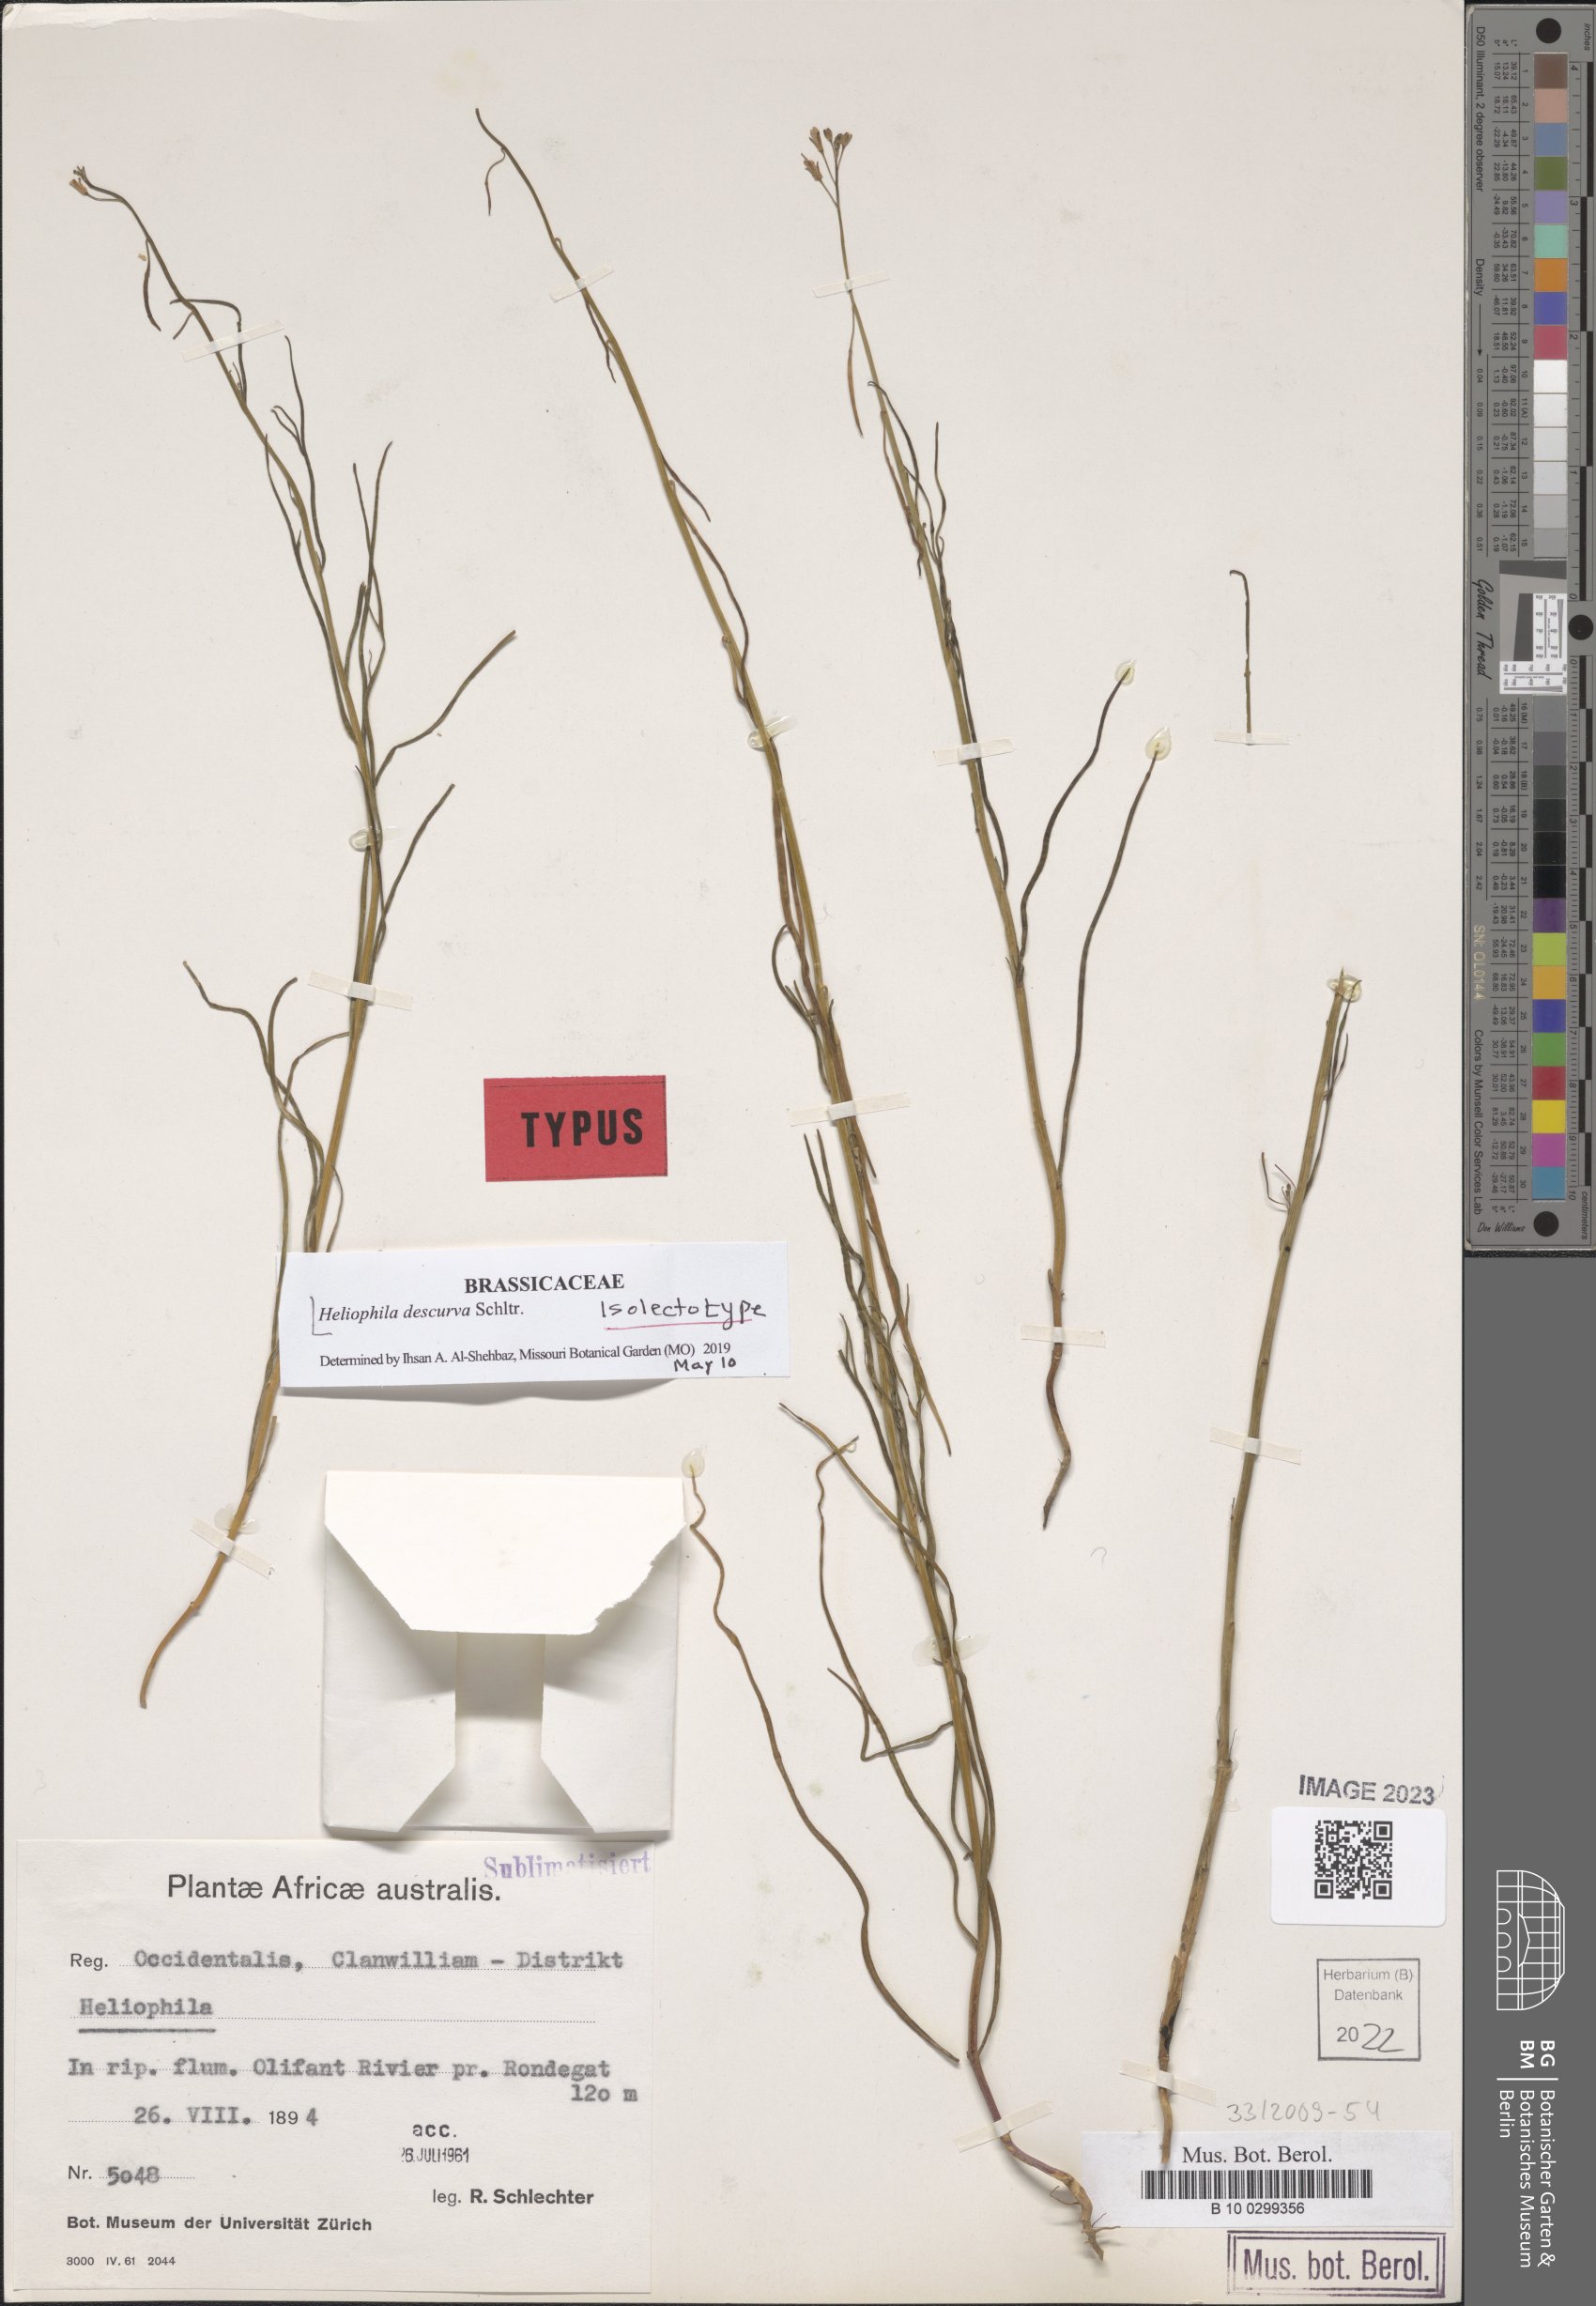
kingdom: Plantae
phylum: Tracheophyta
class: Magnoliopsida
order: Brassicales
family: Brassicaceae
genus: Heliophila
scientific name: Heliophila descurva
